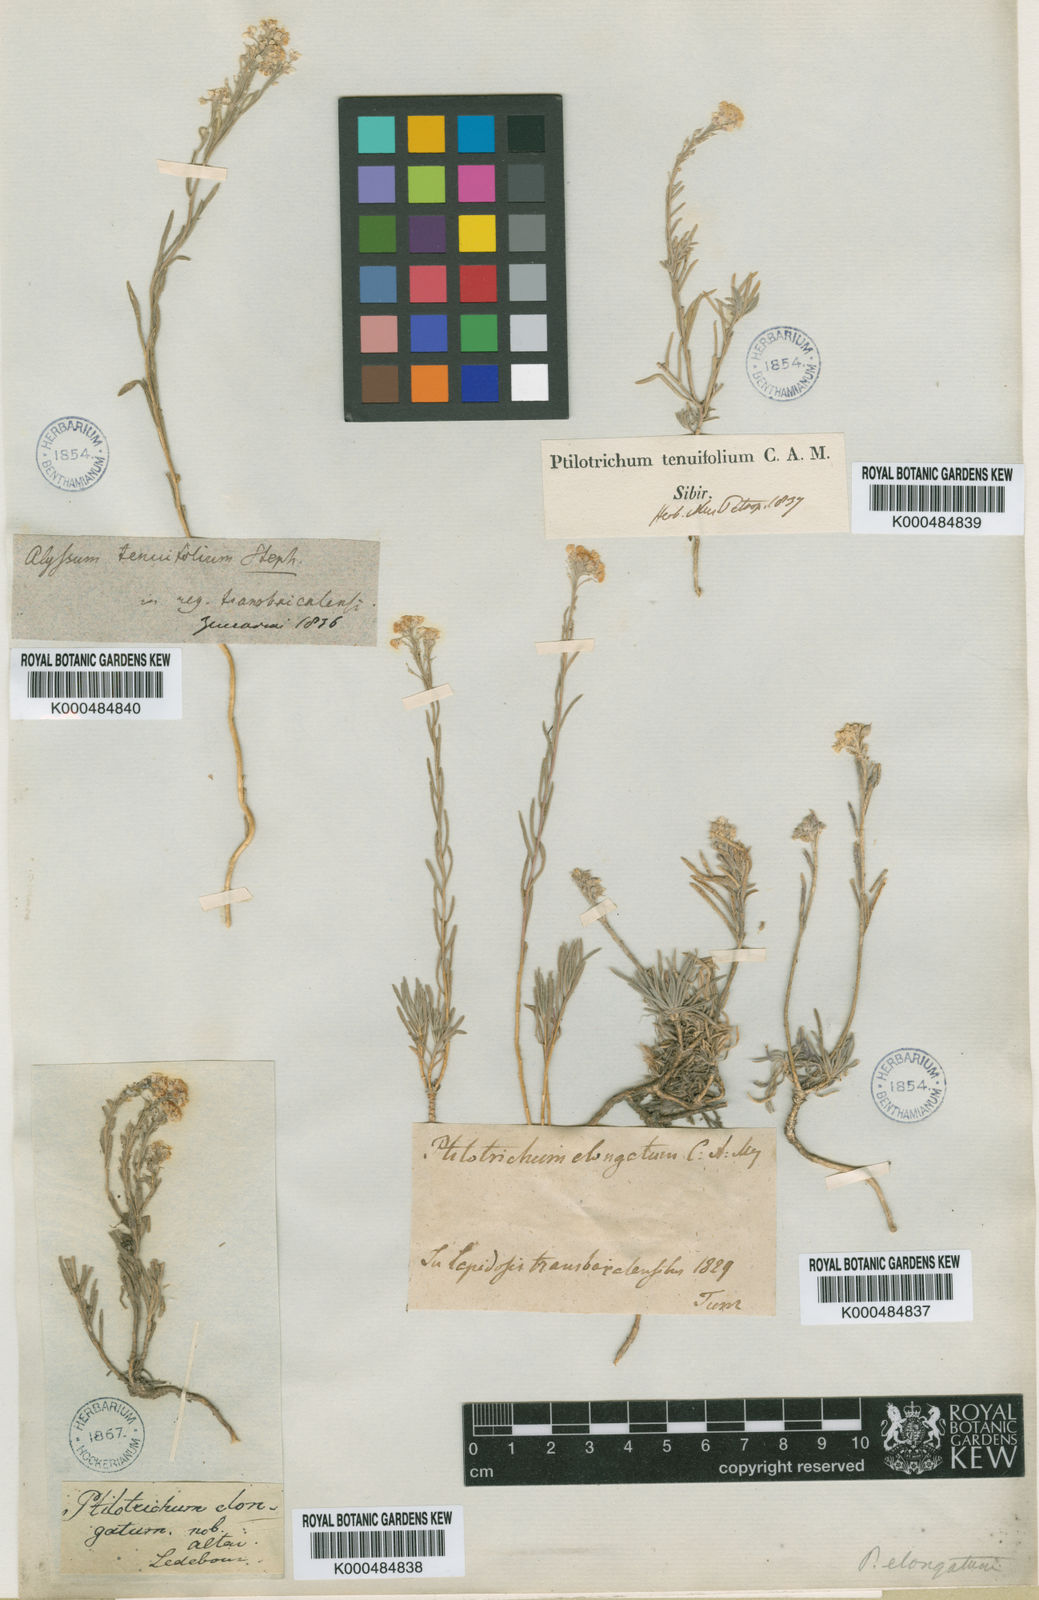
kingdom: Plantae
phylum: Tracheophyta
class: Magnoliopsida
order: Brassicales
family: Brassicaceae
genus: Stevenia
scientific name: Stevenia tenuifolia
